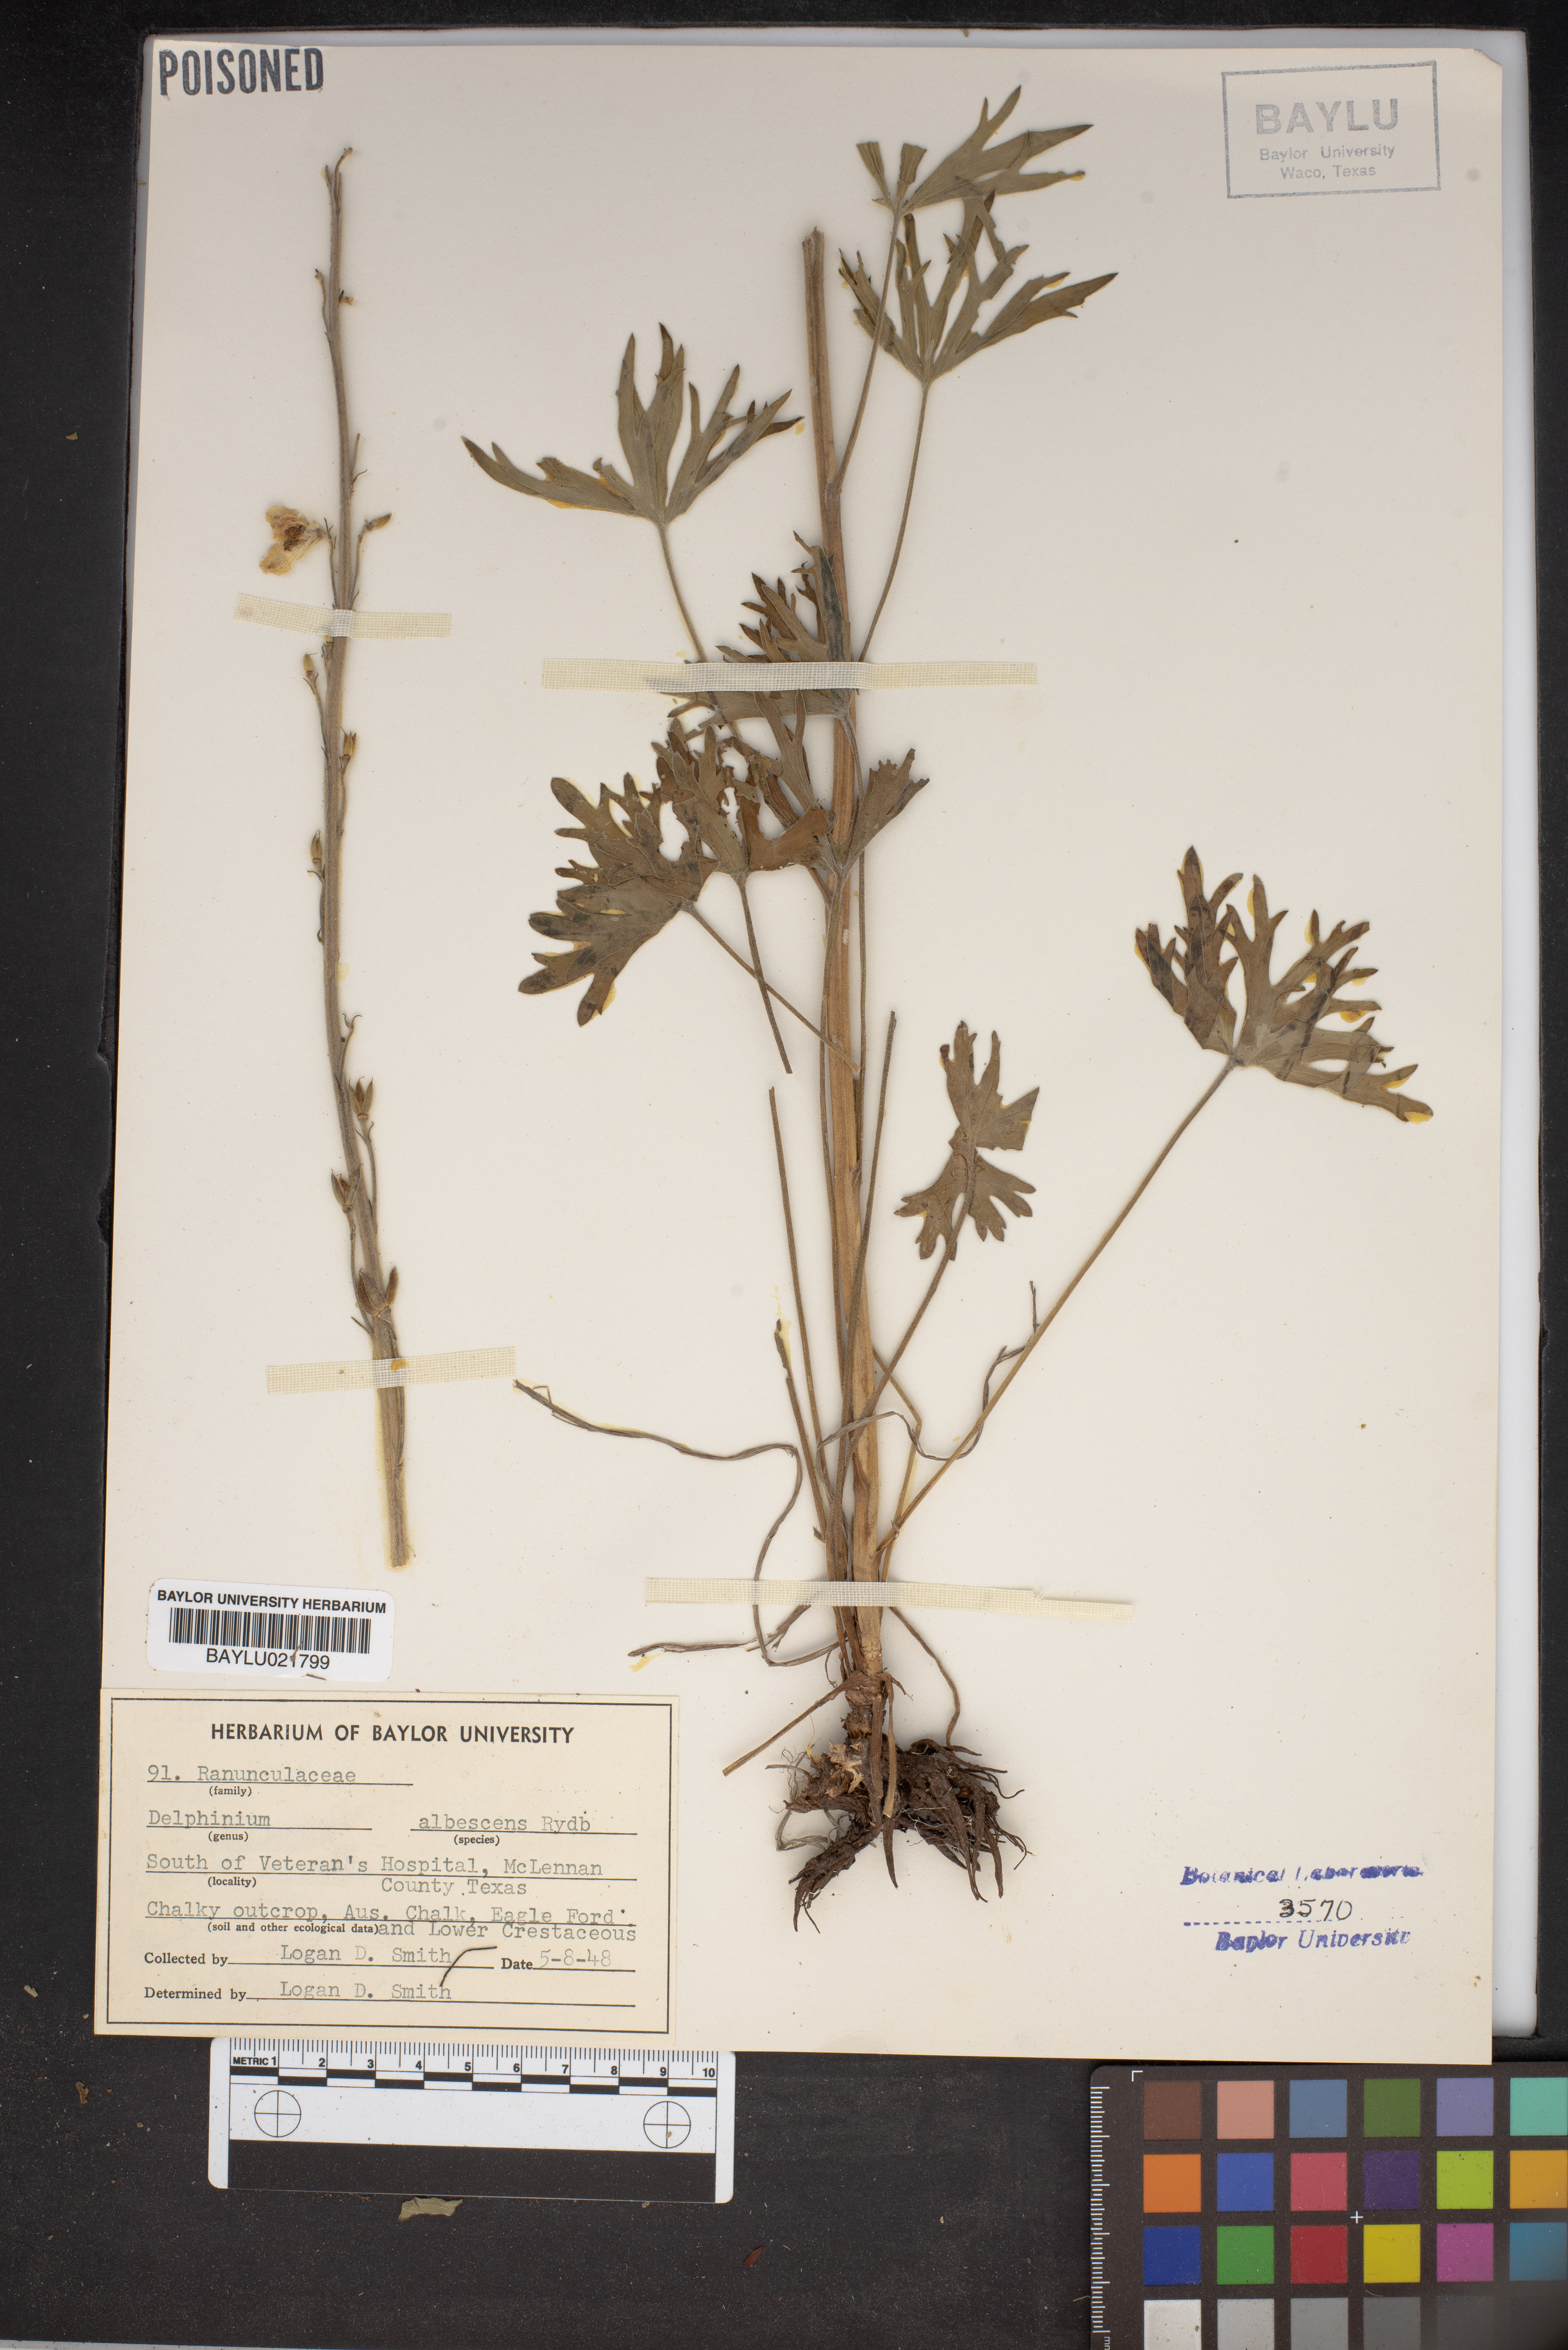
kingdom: Plantae
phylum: Tracheophyta
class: Magnoliopsida
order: Ranunculales
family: Ranunculaceae
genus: Delphinium
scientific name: Delphinium carolinianum
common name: Carolina larkspur
